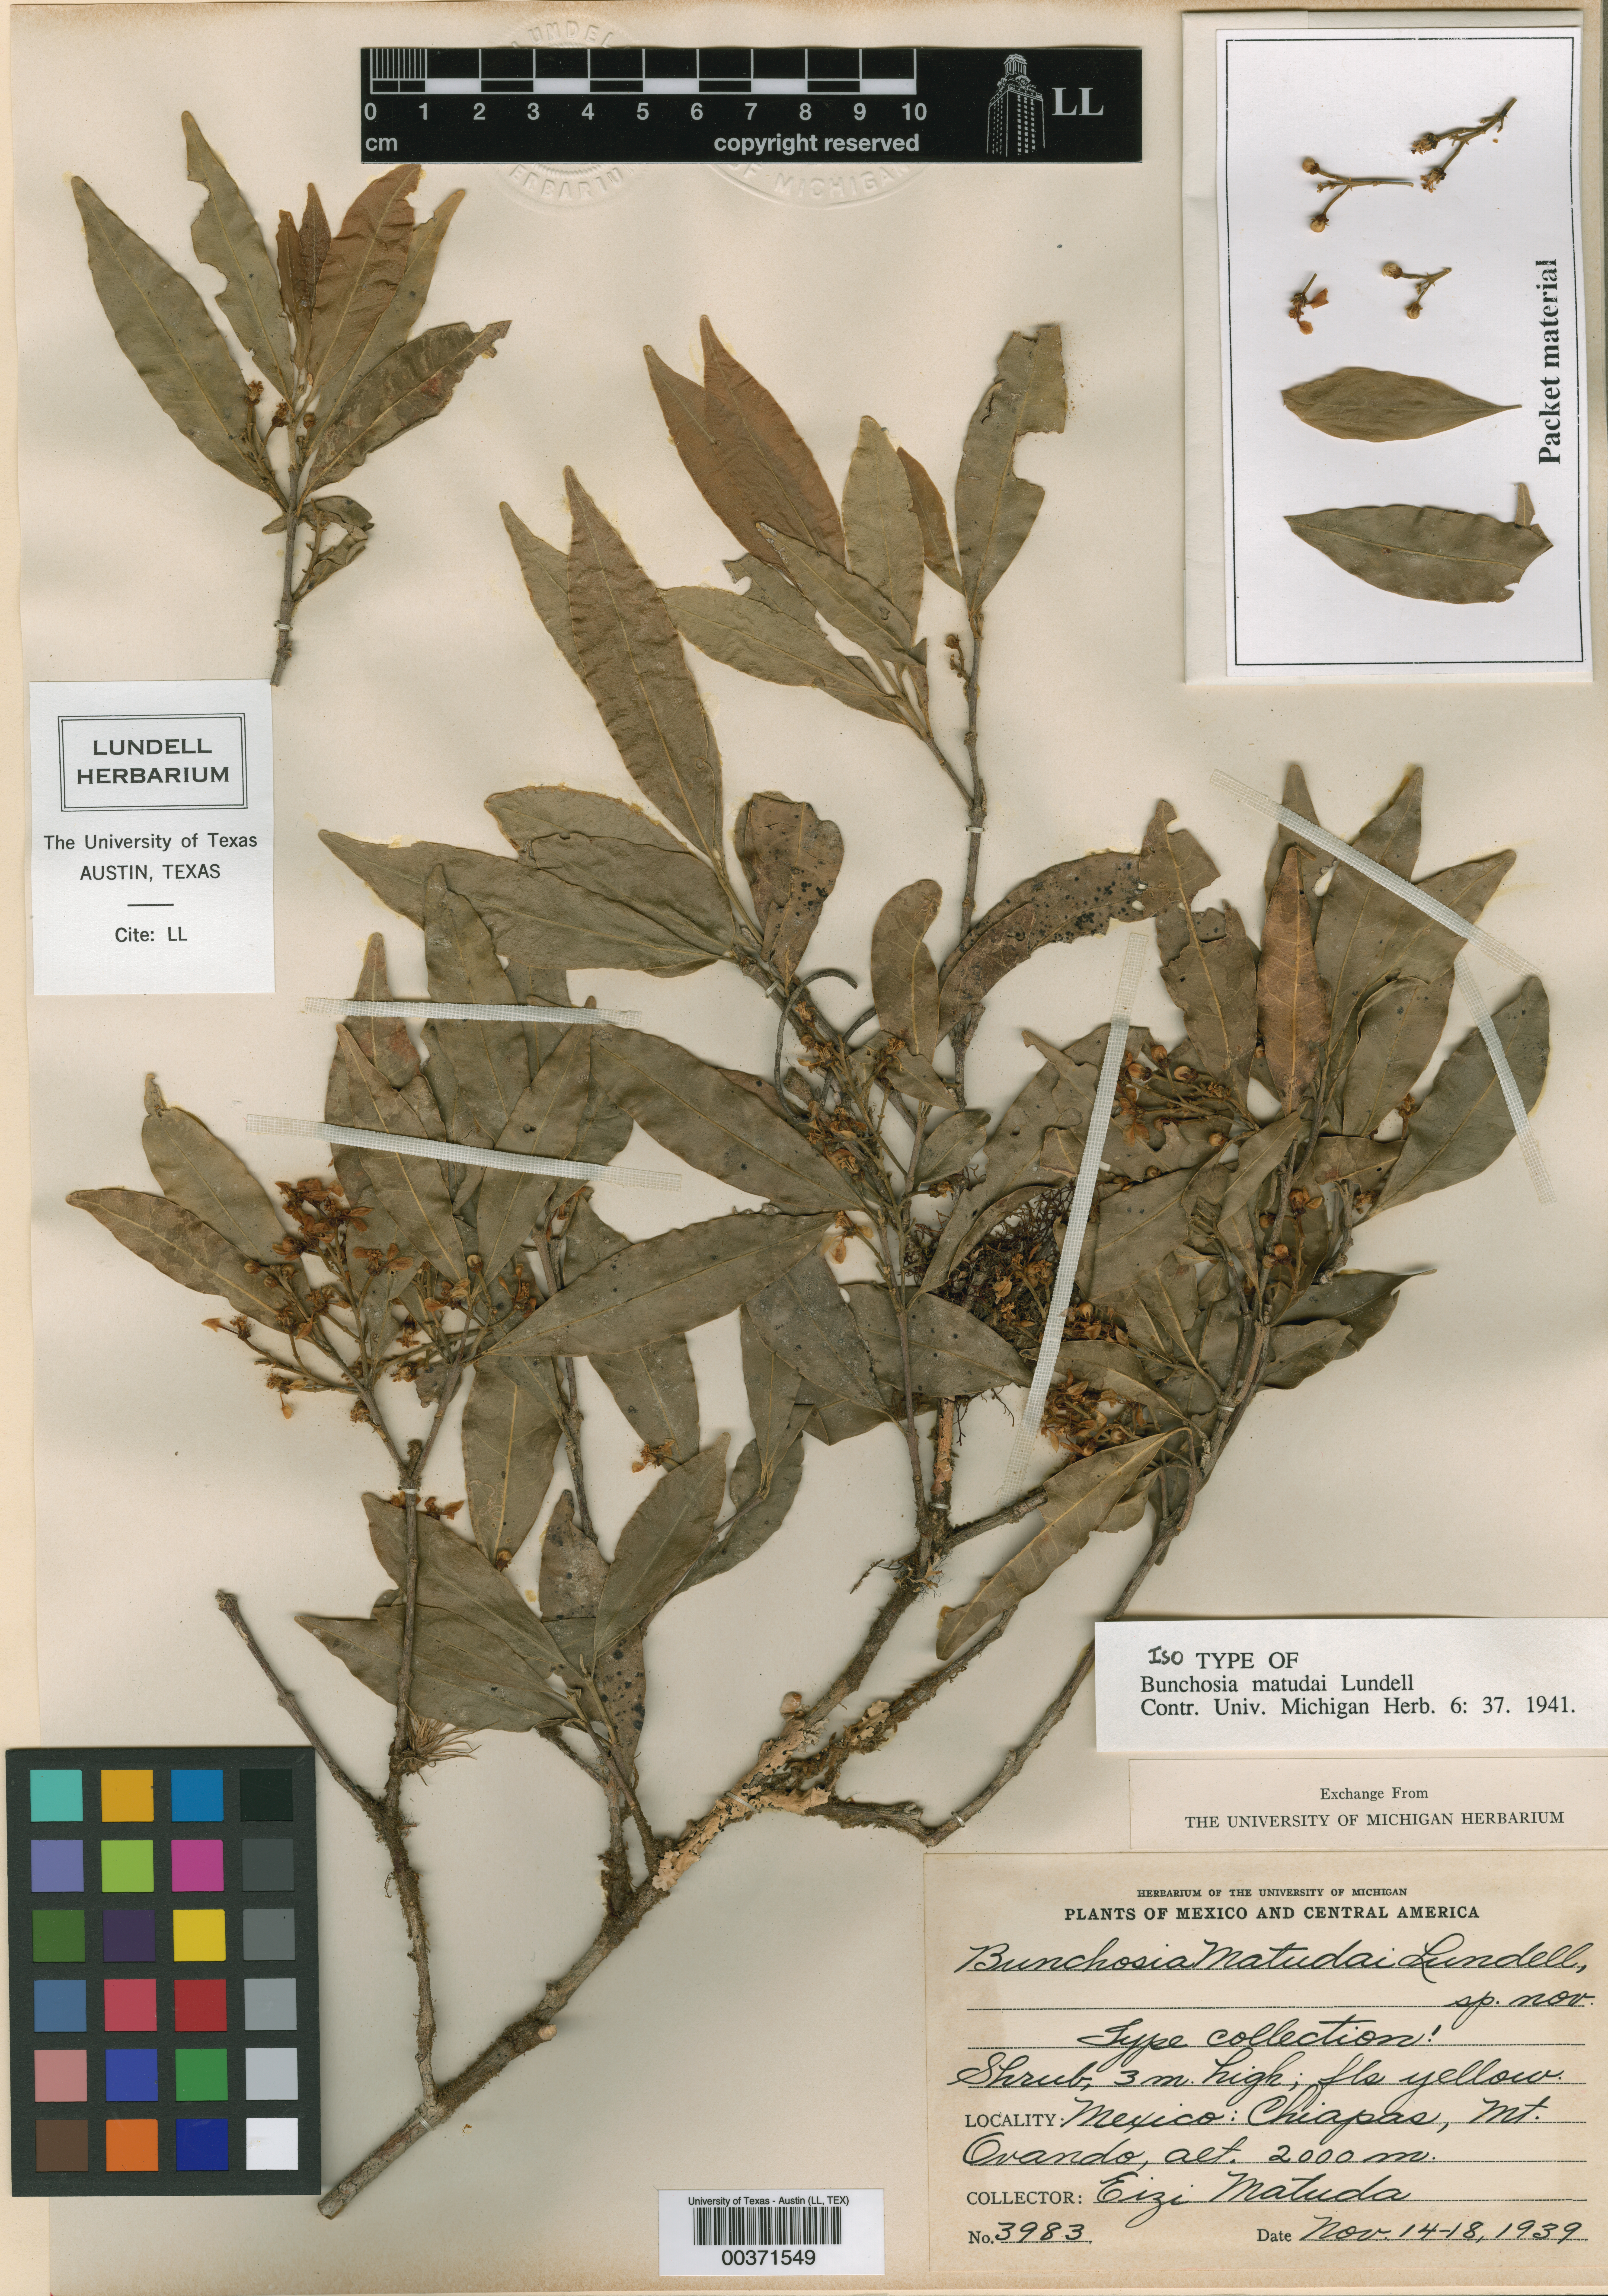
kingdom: Plantae
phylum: Tracheophyta
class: Magnoliopsida
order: Malpighiales
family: Malpighiaceae
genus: Bunchosia
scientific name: Bunchosia matudae
